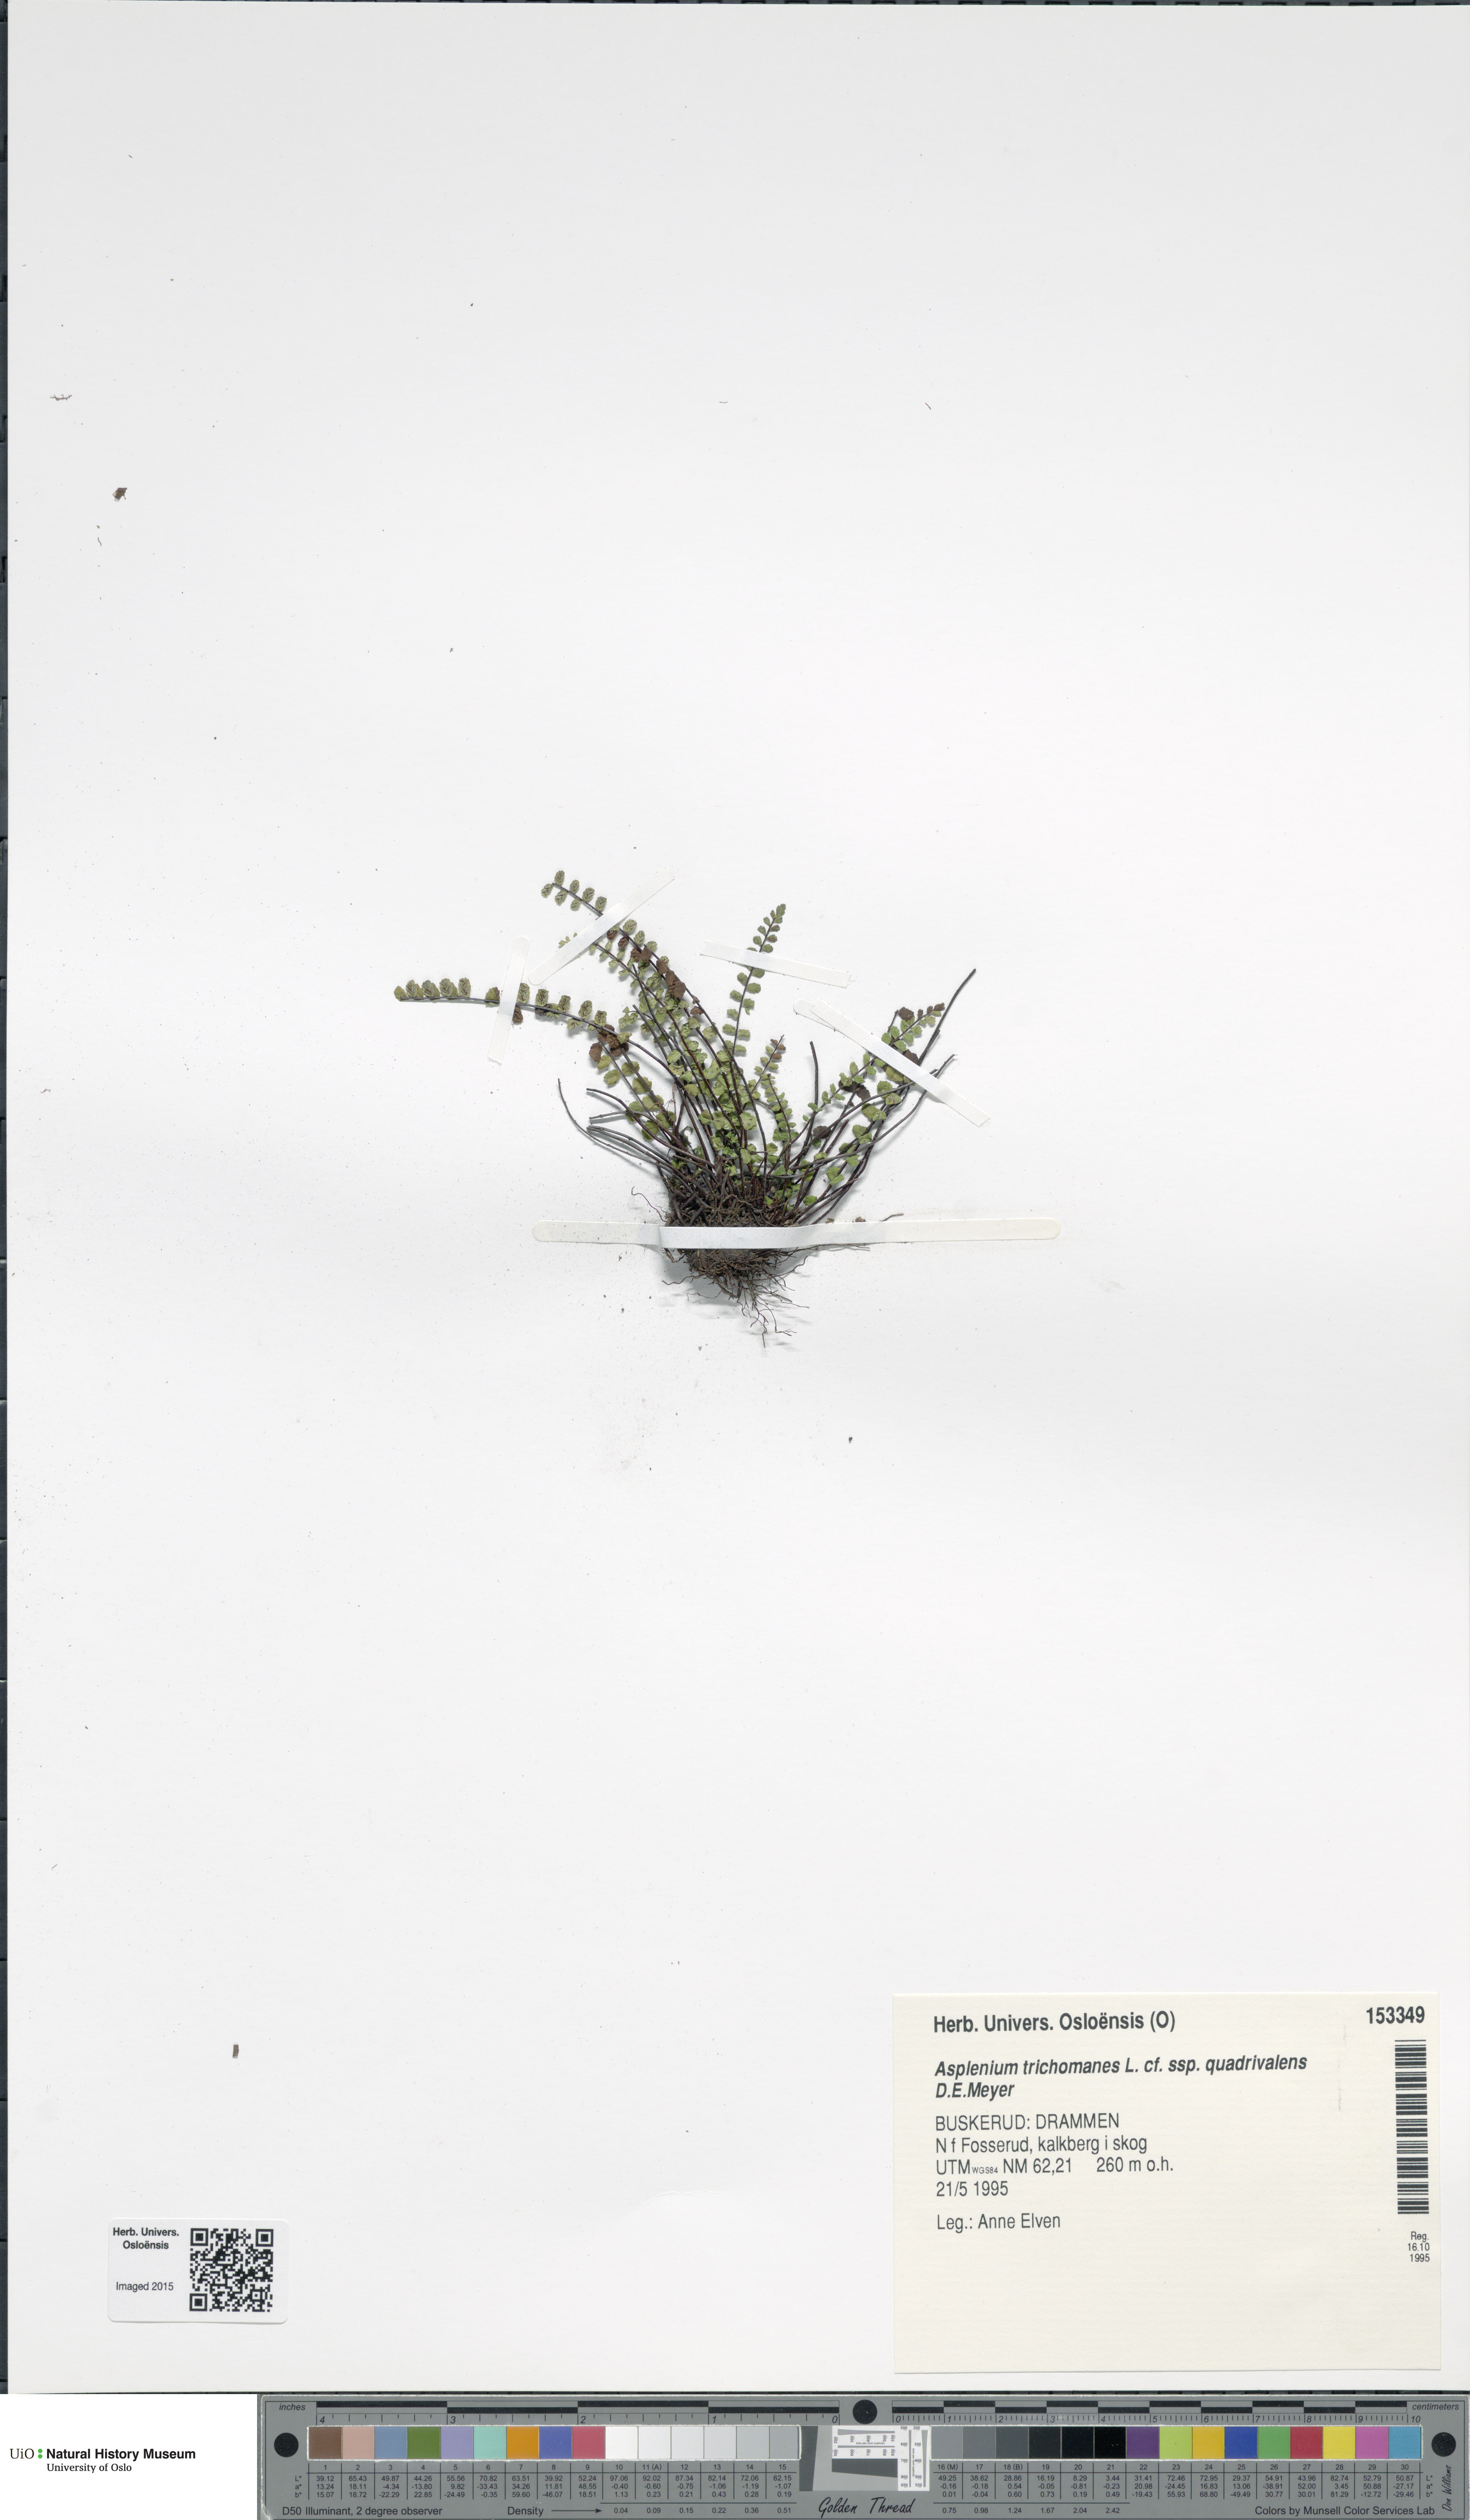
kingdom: Plantae
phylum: Tracheophyta
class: Polypodiopsida
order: Polypodiales
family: Aspleniaceae
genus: Asplenium
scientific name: Asplenium quadrivalens
